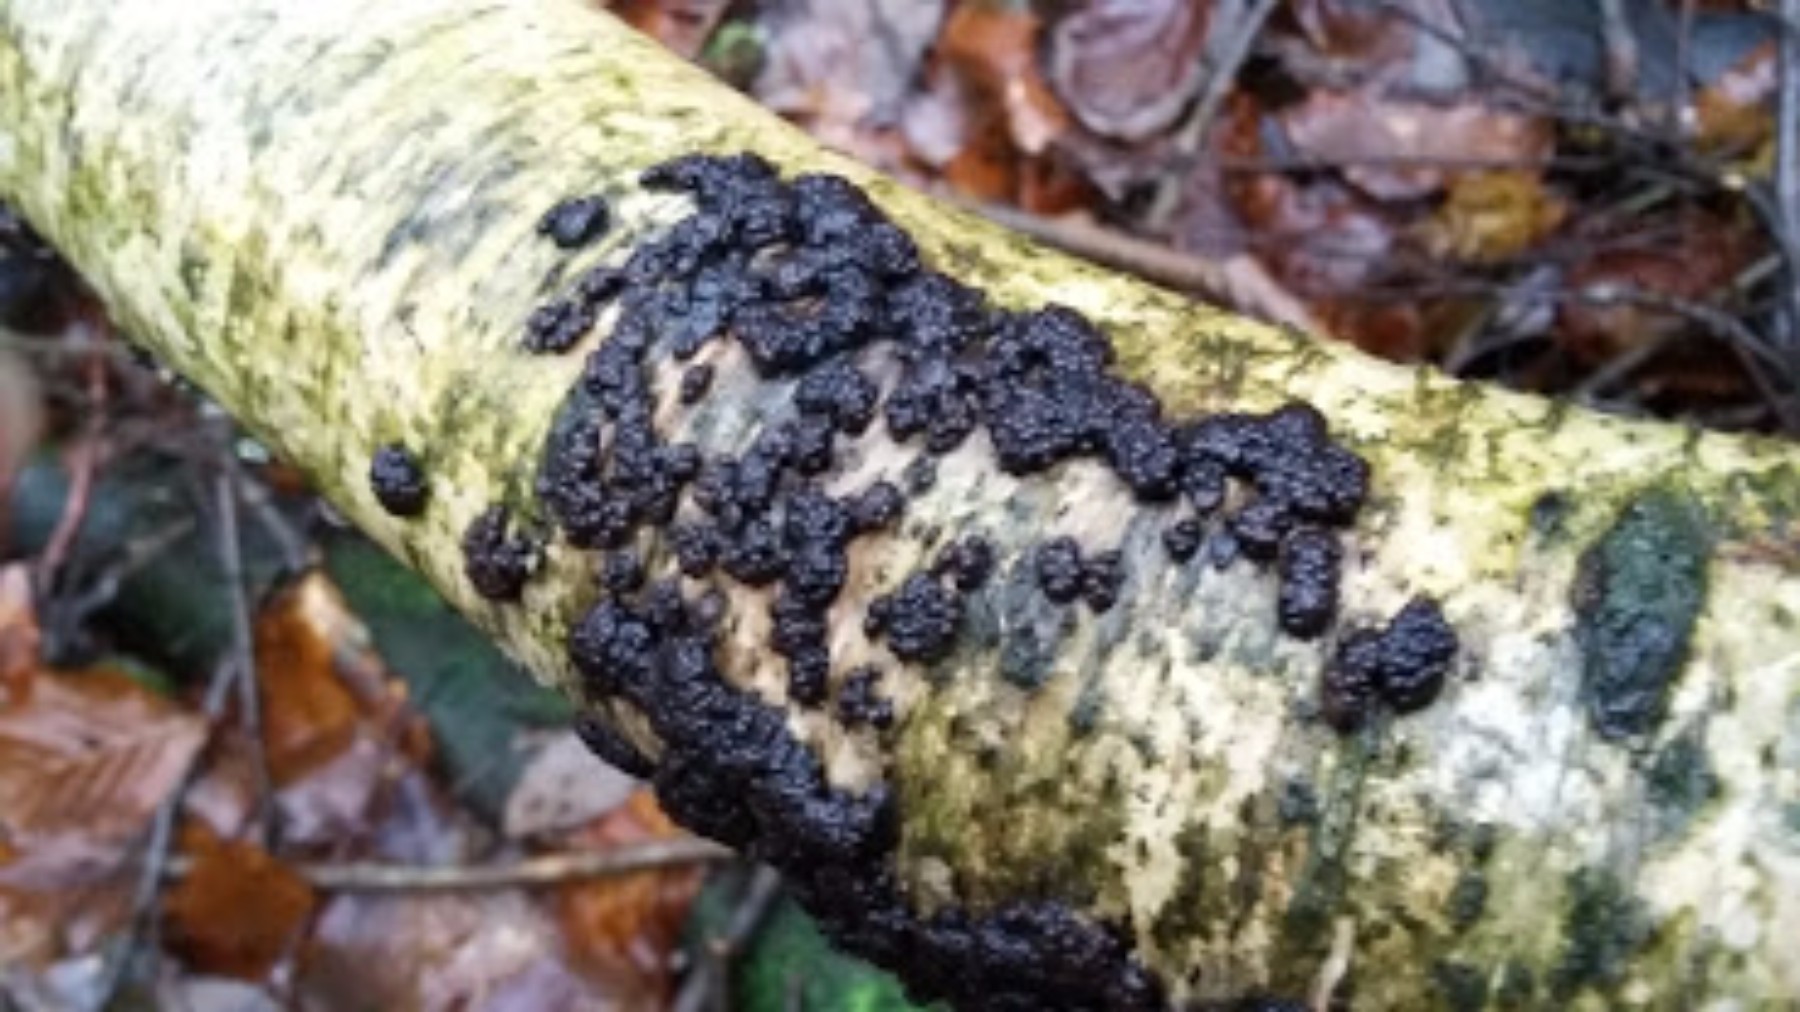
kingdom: Fungi
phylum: Ascomycota
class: Sordariomycetes
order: Xylariales
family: Hypoxylaceae
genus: Jackrogersella
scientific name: Jackrogersella multiformis
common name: foranderlig kulbær
